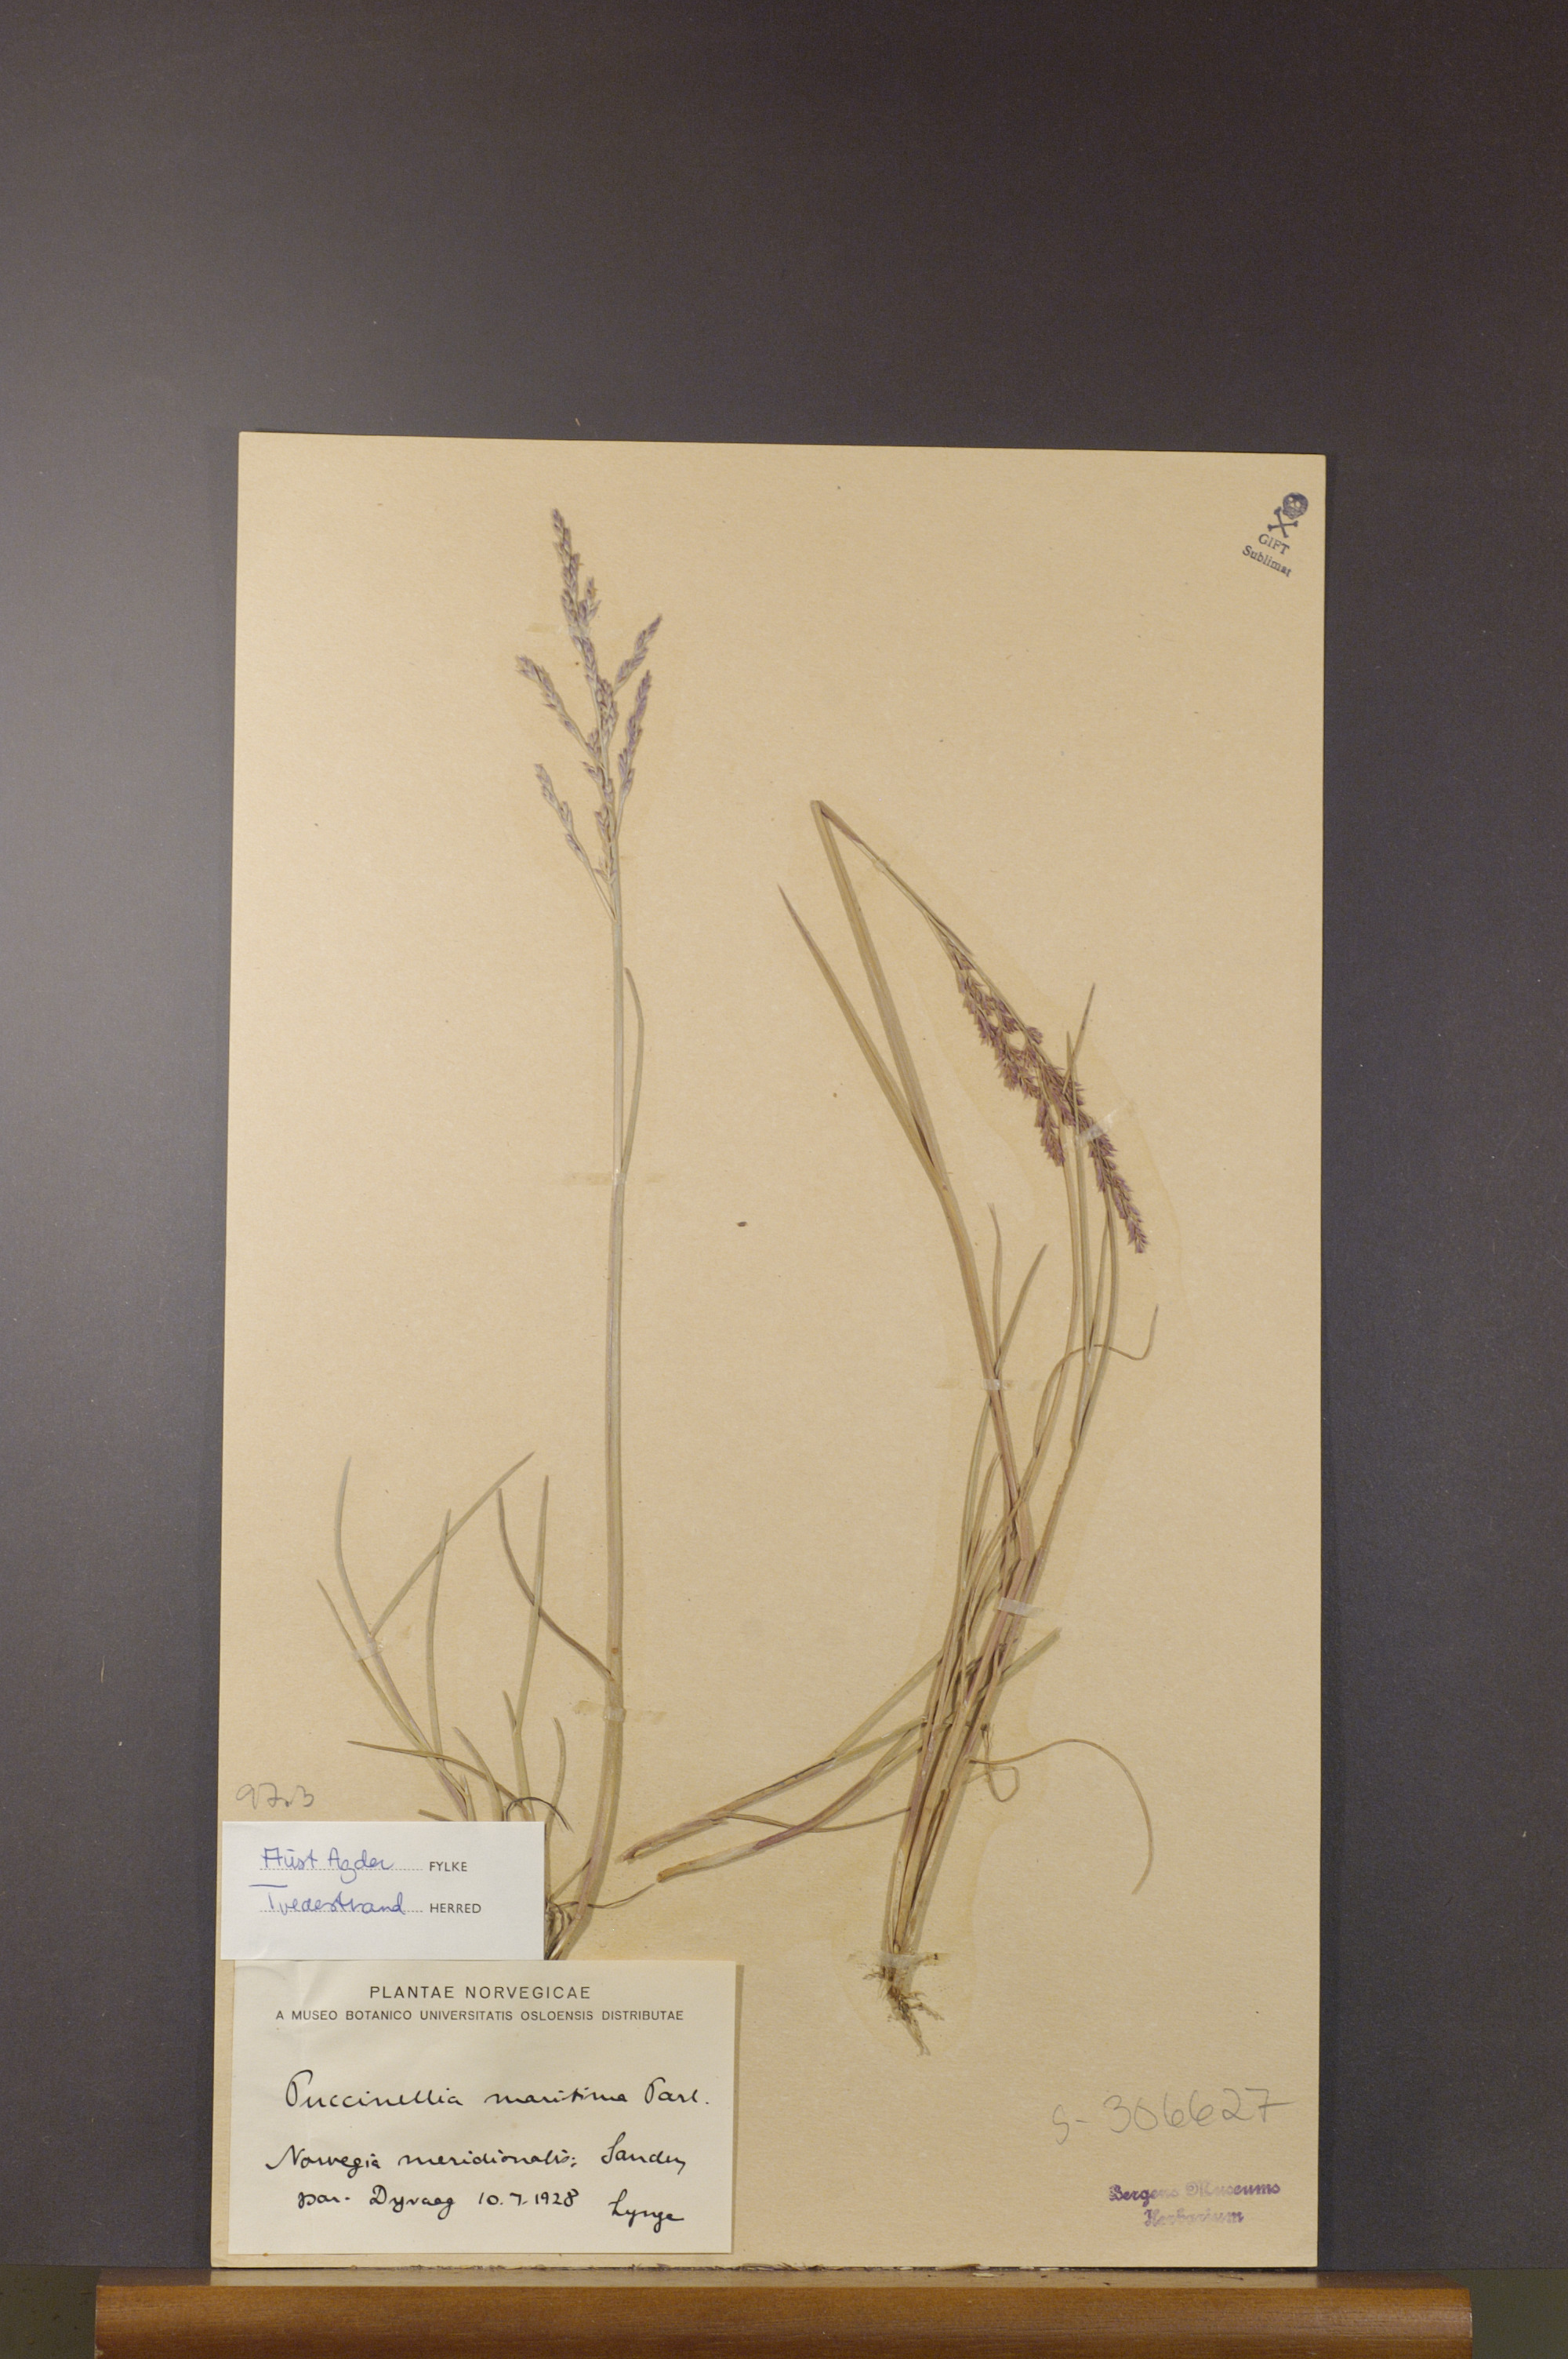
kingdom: Plantae
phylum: Tracheophyta
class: Liliopsida
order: Poales
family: Poaceae
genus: Puccinellia
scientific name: Puccinellia maritima
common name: Common saltmarsh grass
